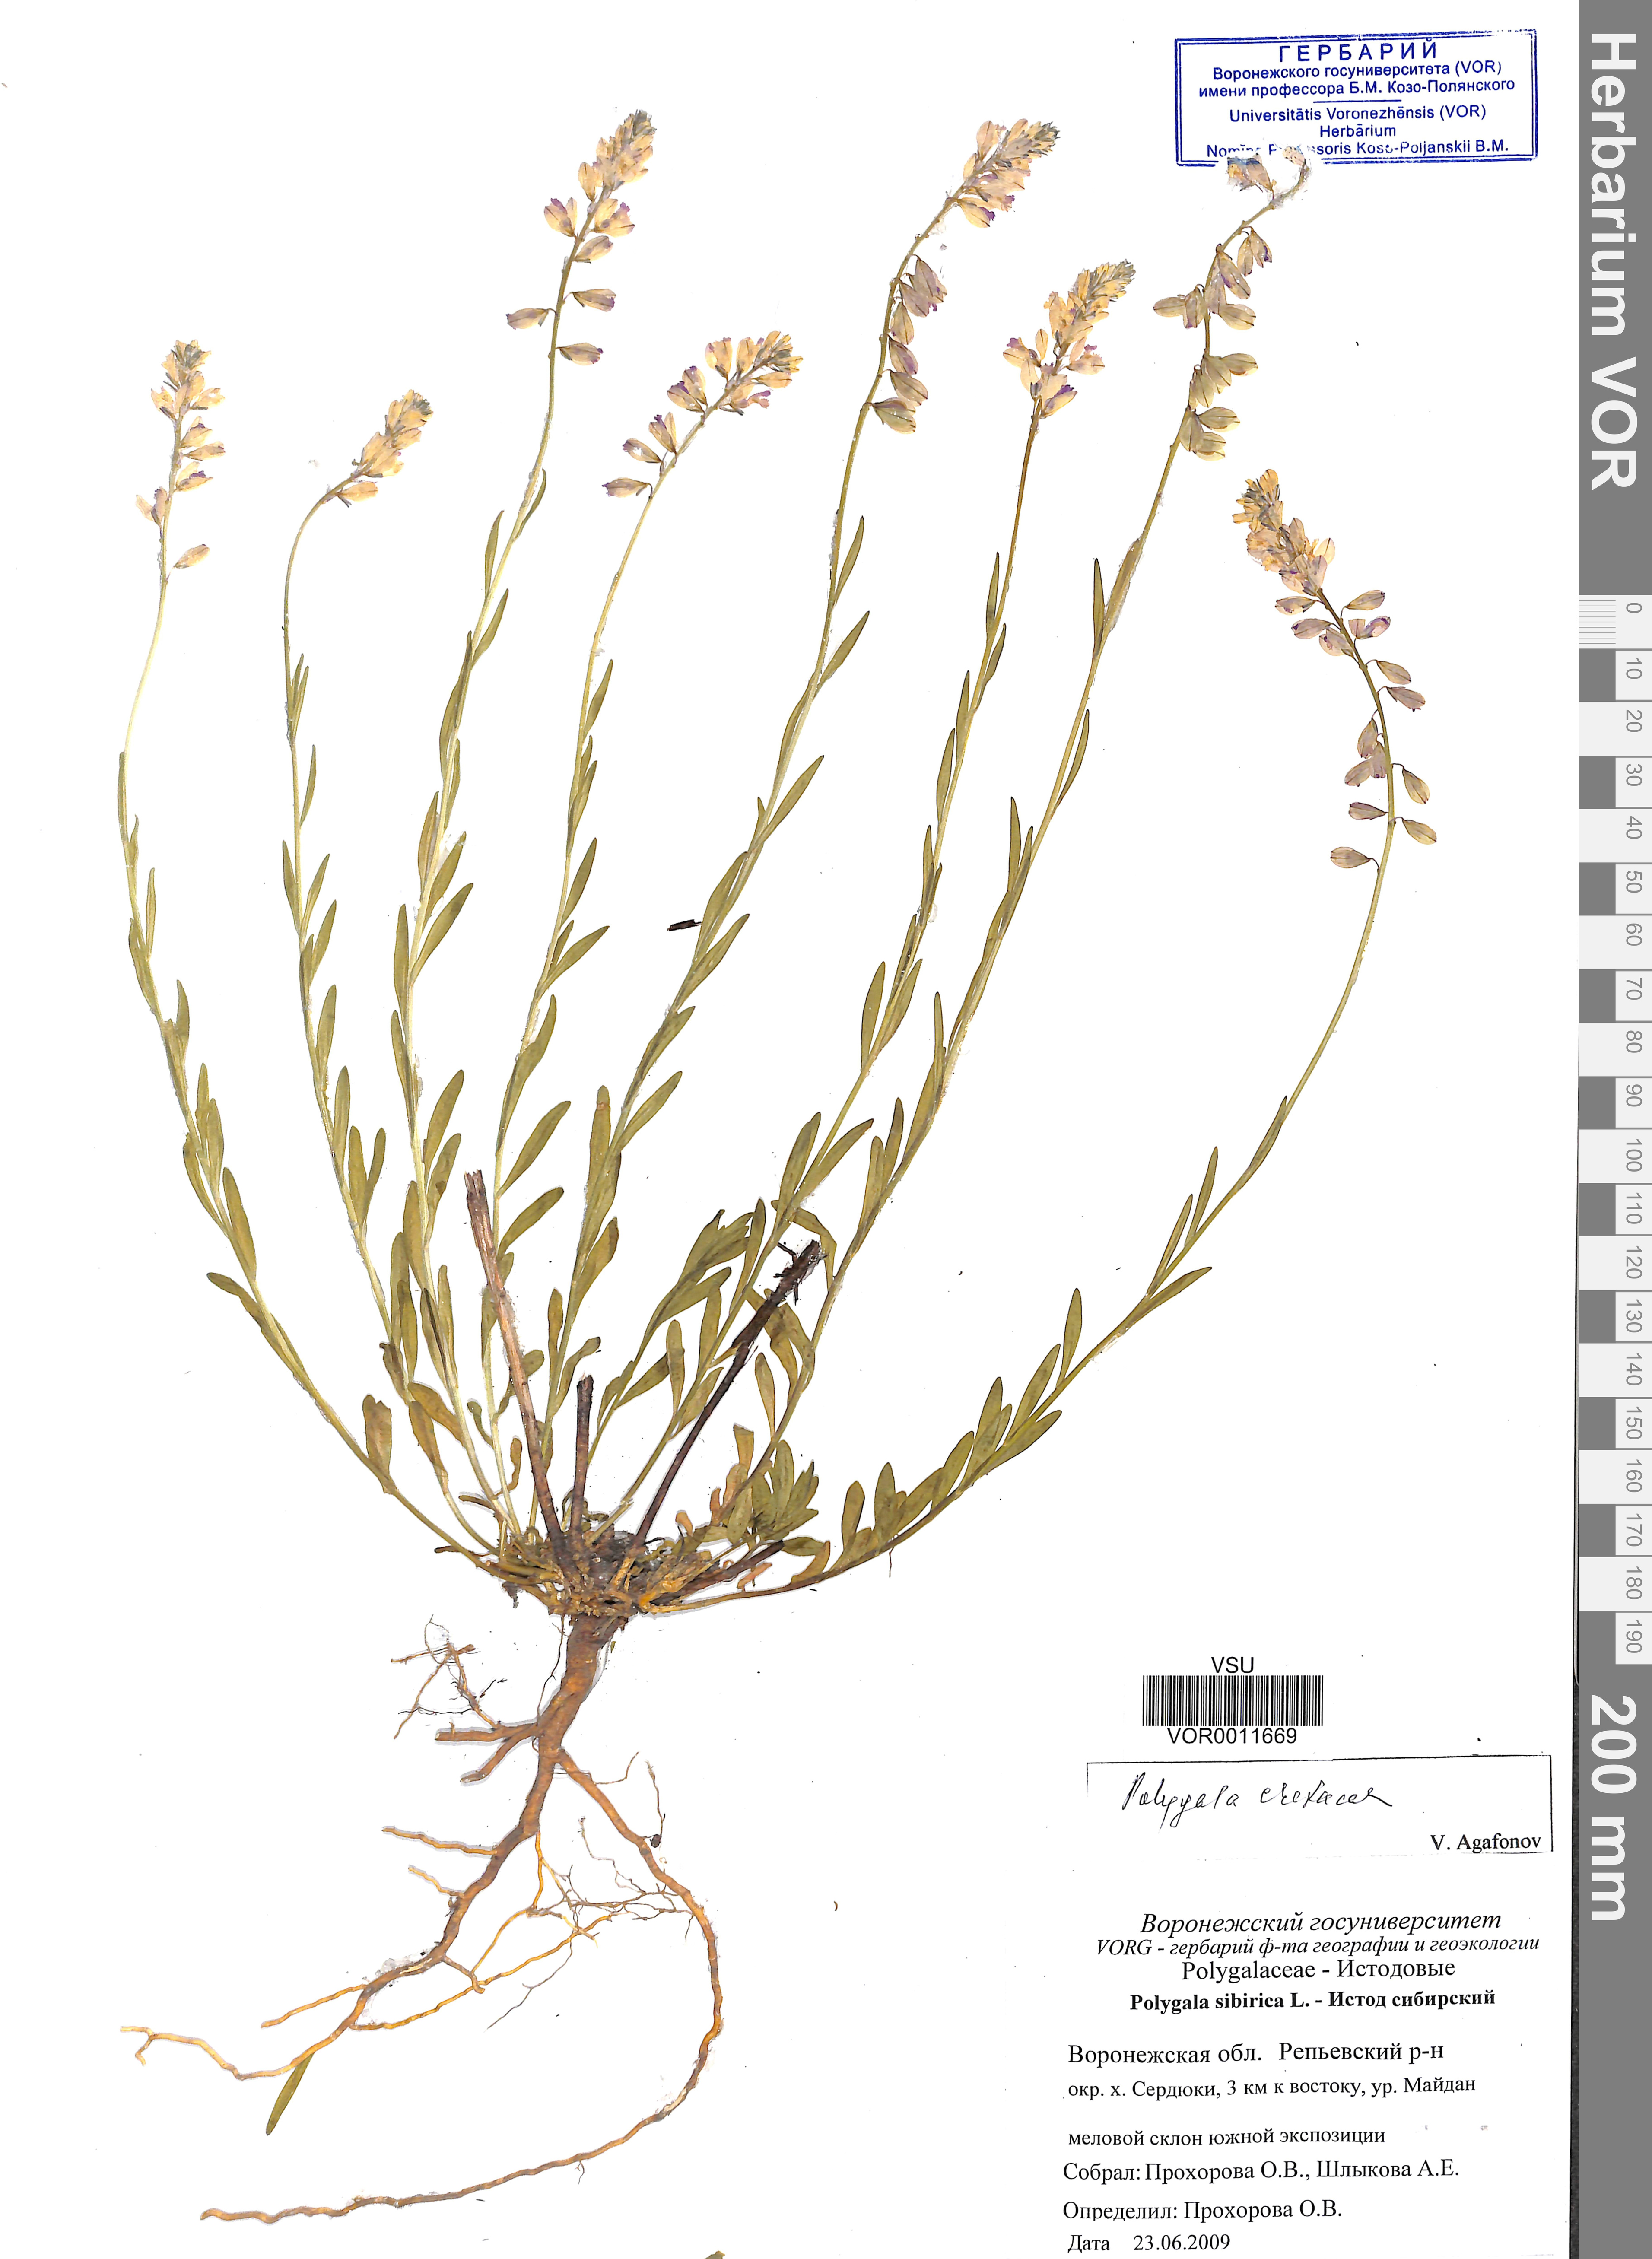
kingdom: Plantae
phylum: Tracheophyta
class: Magnoliopsida
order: Fabales
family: Polygalaceae
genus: Polygala
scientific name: Polygala nicaeensis
